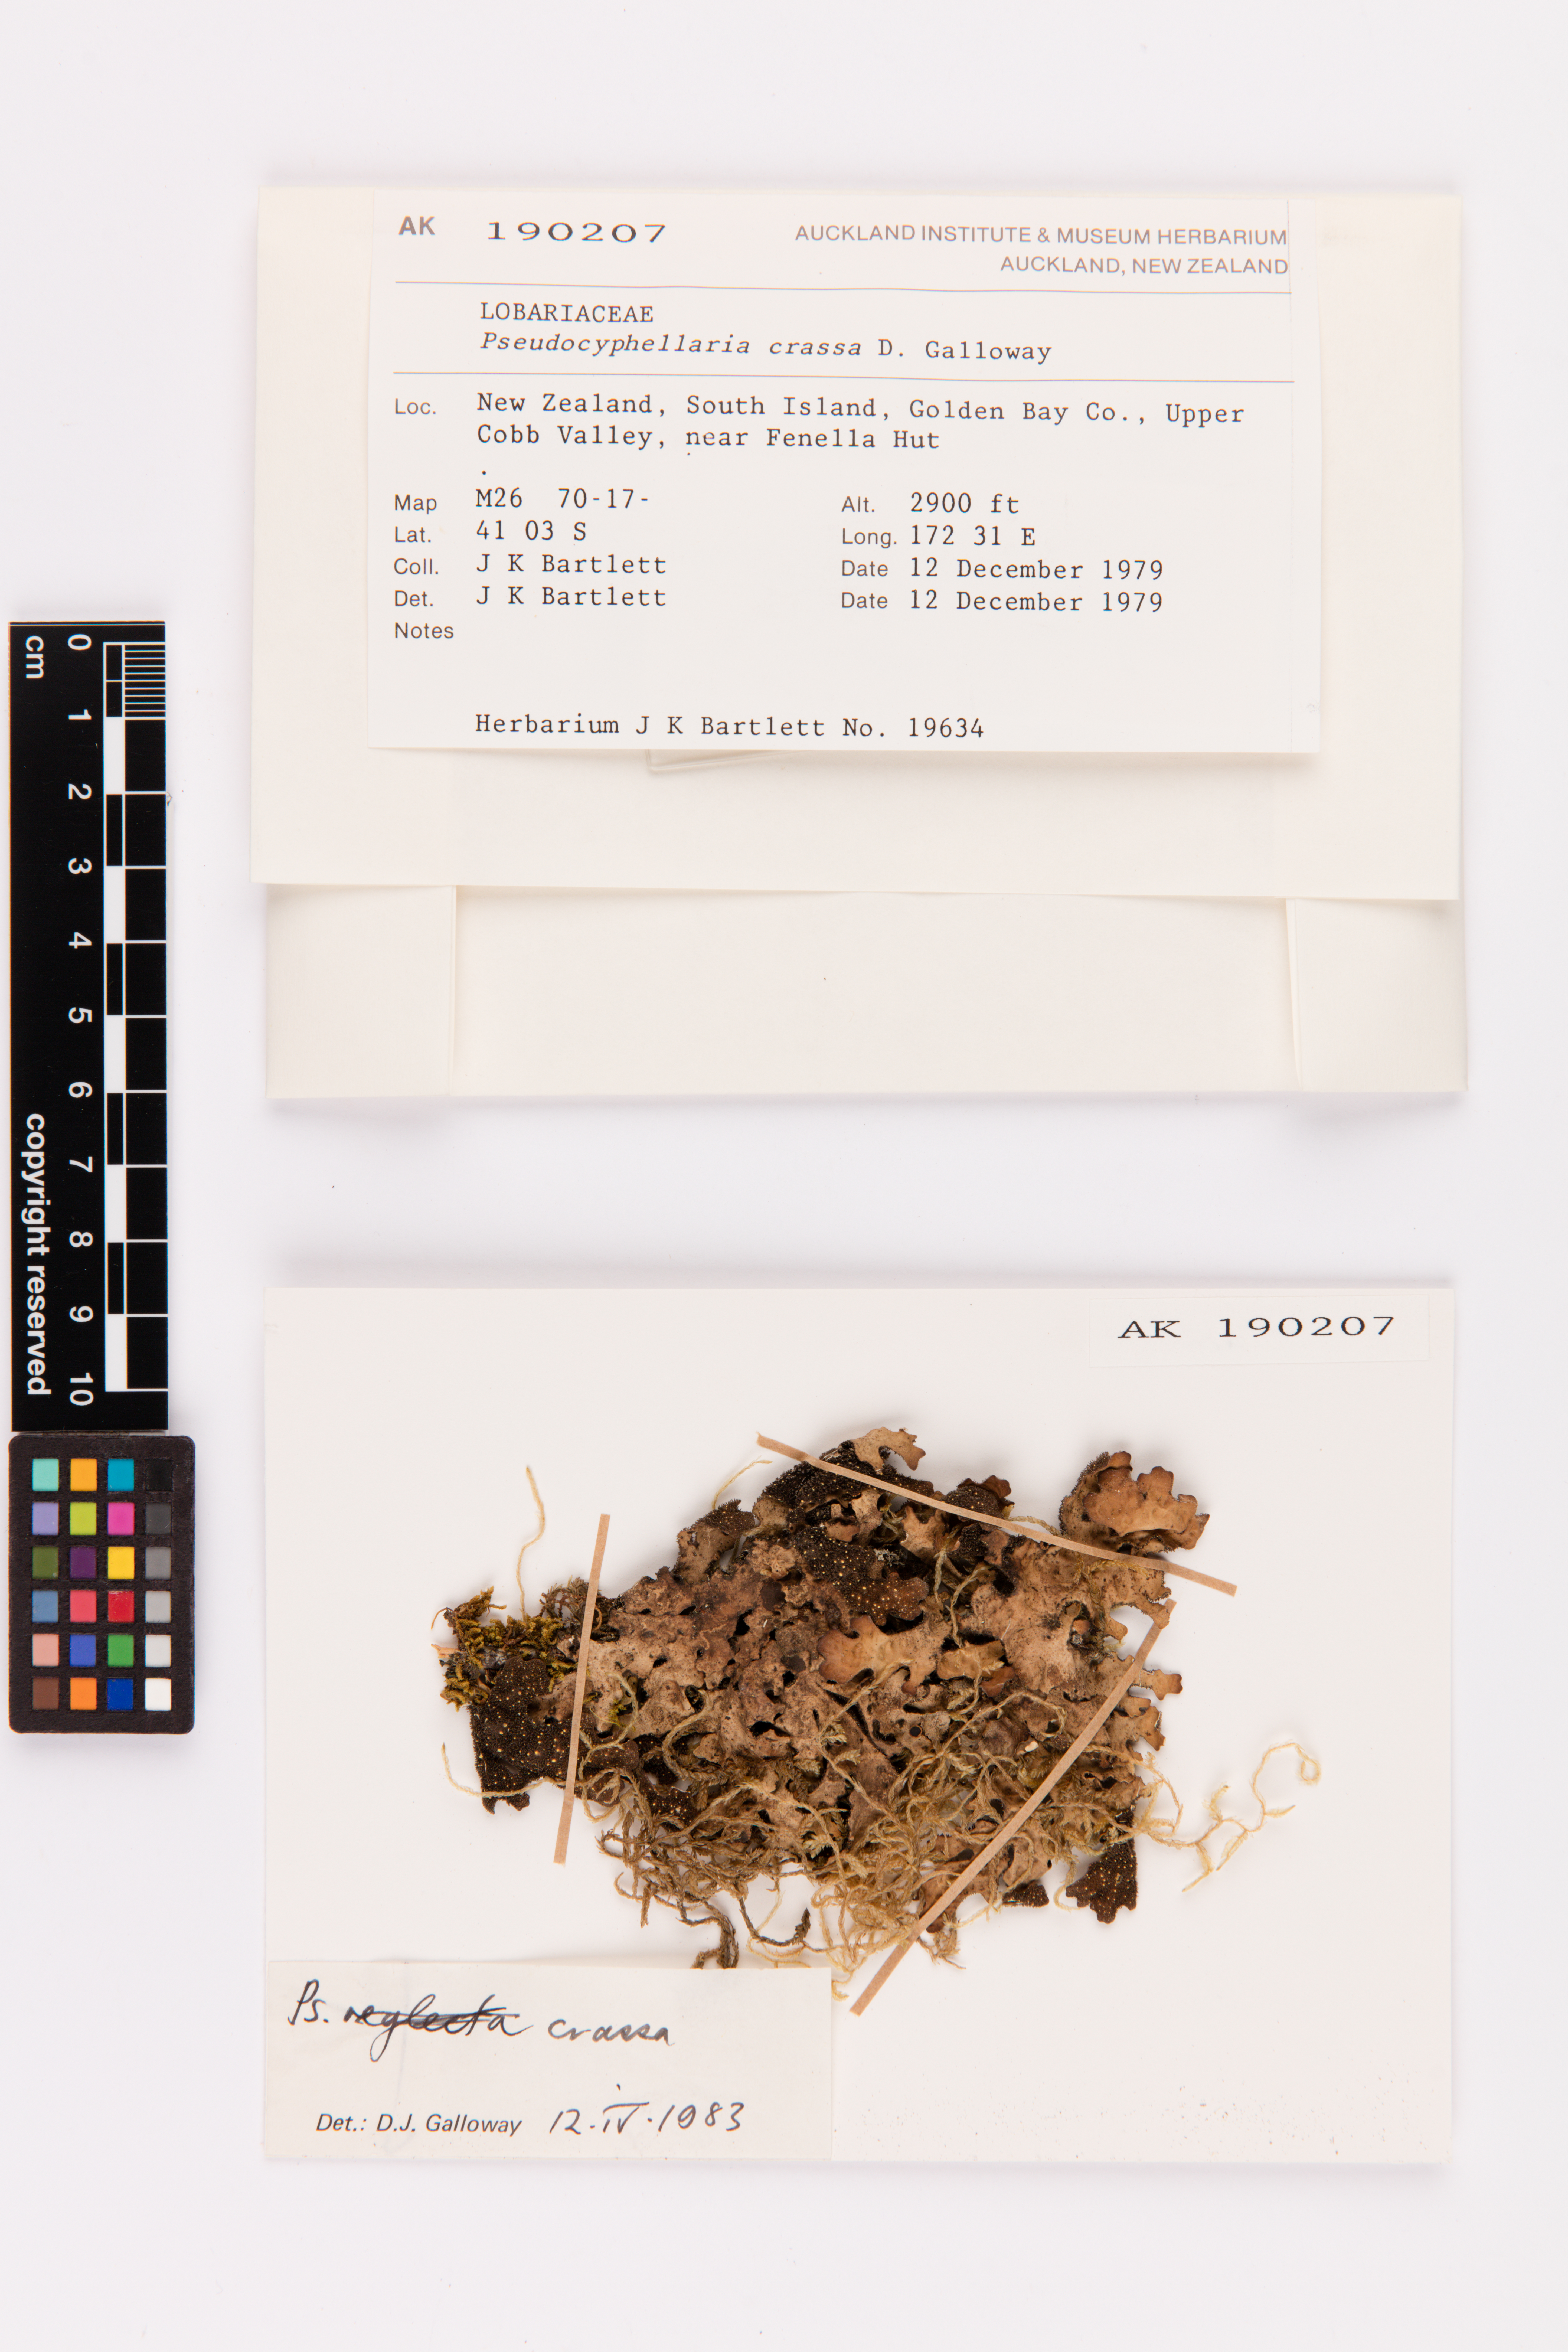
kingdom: Fungi
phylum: Ascomycota
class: Lecanoromycetes
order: Peltigerales
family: Lobariaceae
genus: Pseudocyphellaria
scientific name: Pseudocyphellaria crassa
